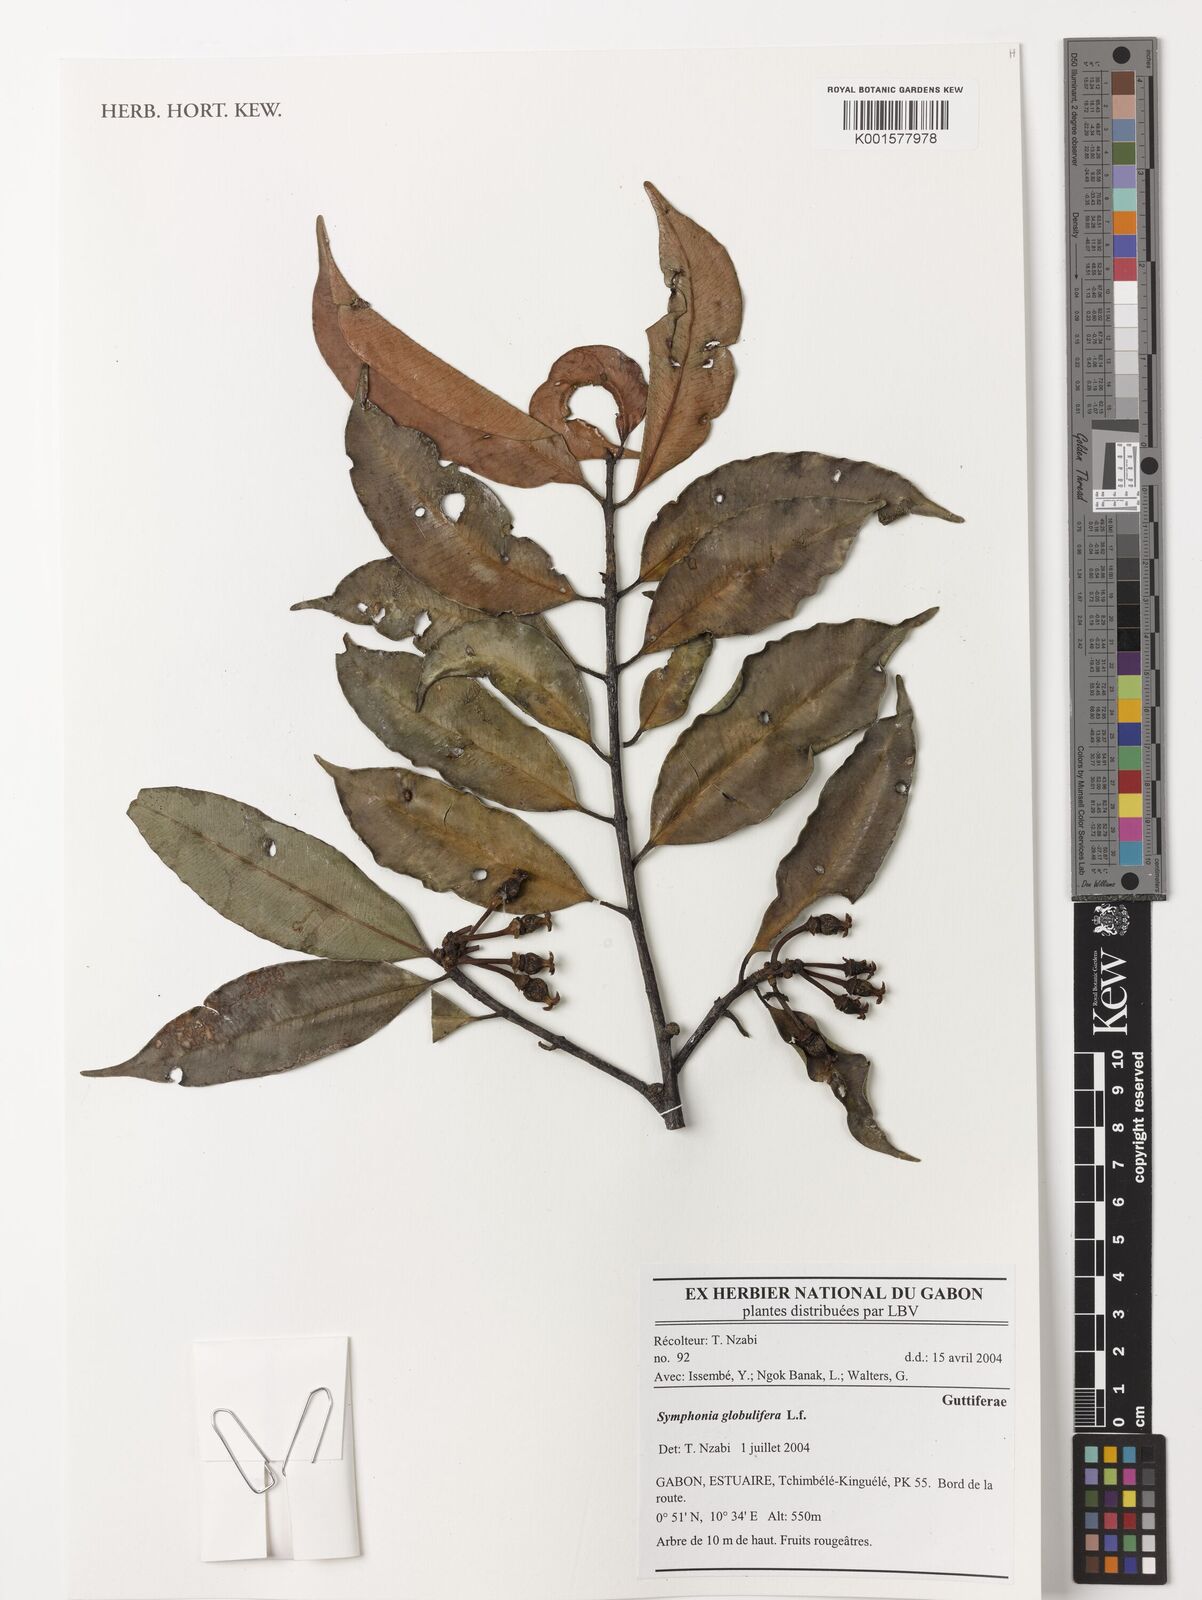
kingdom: Plantae
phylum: Tracheophyta
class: Magnoliopsida
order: Malpighiales
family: Clusiaceae
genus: Symphonia
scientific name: Symphonia globulifera
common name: Boarwood
